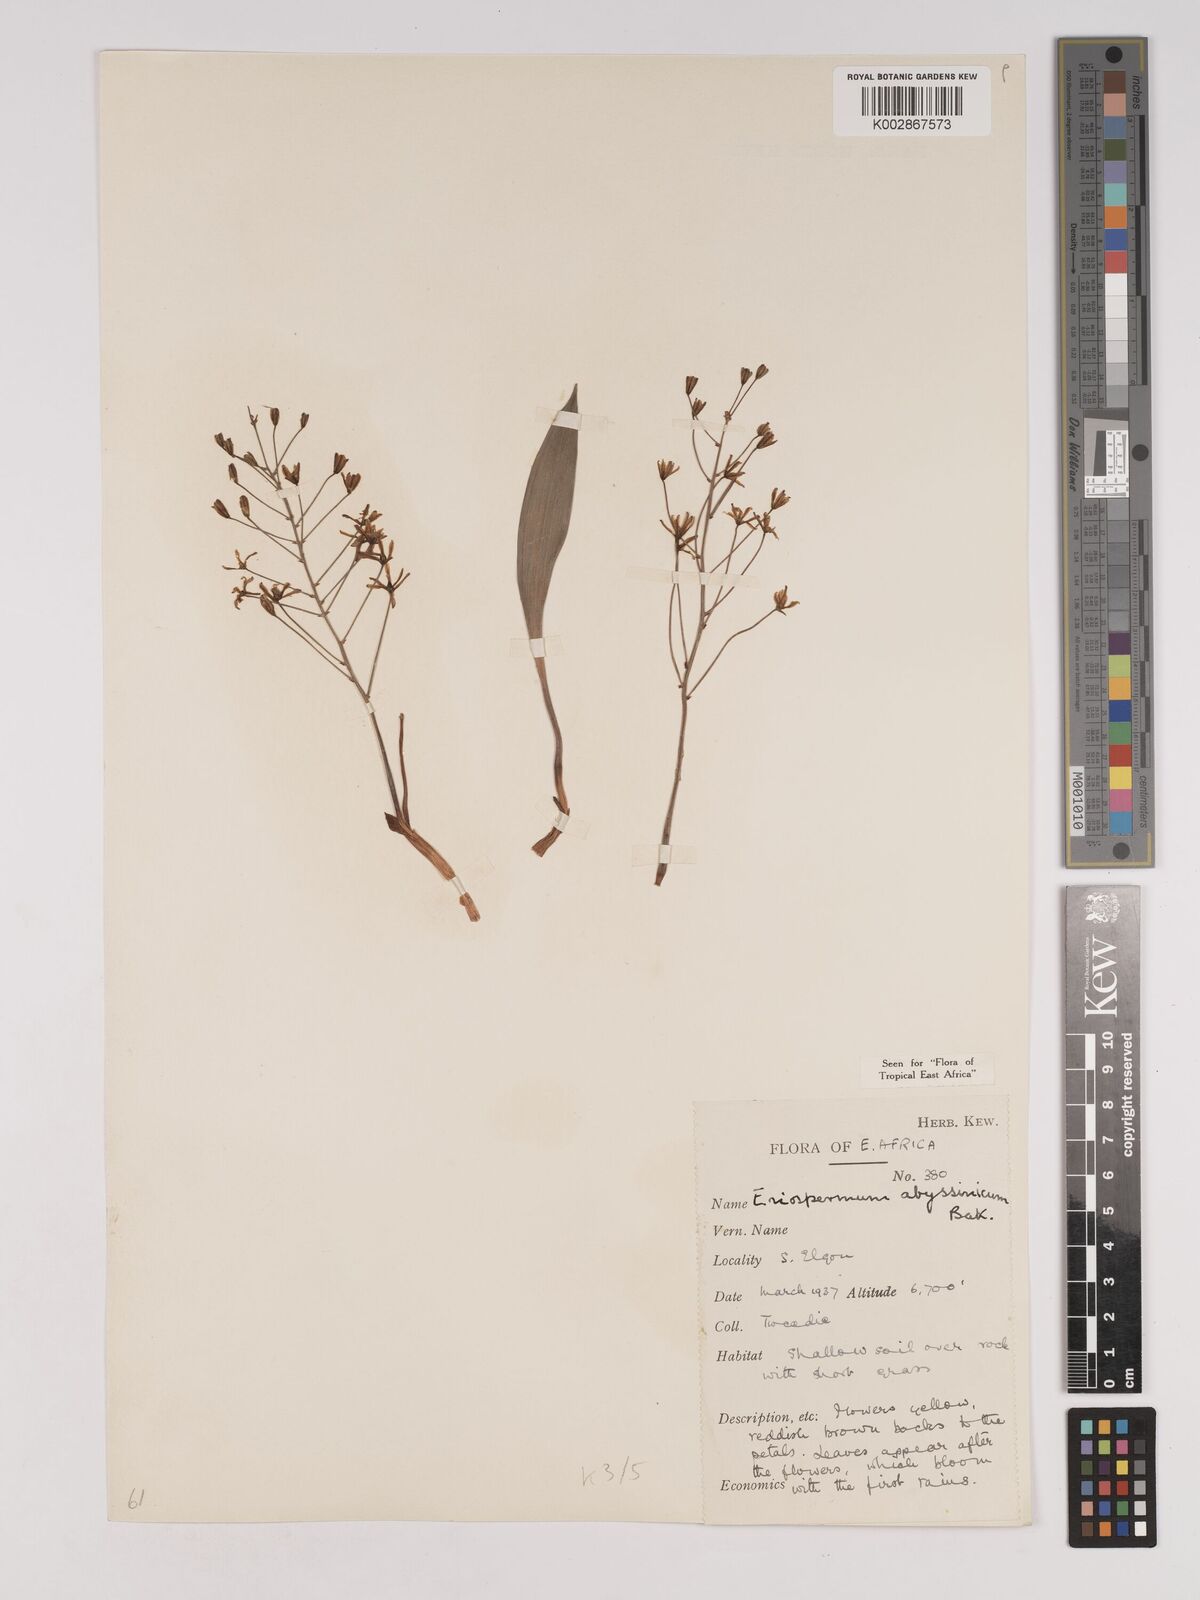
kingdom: Plantae
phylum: Tracheophyta
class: Liliopsida
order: Asparagales
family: Asparagaceae
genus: Eriospermum
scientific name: Eriospermum abyssinicum
